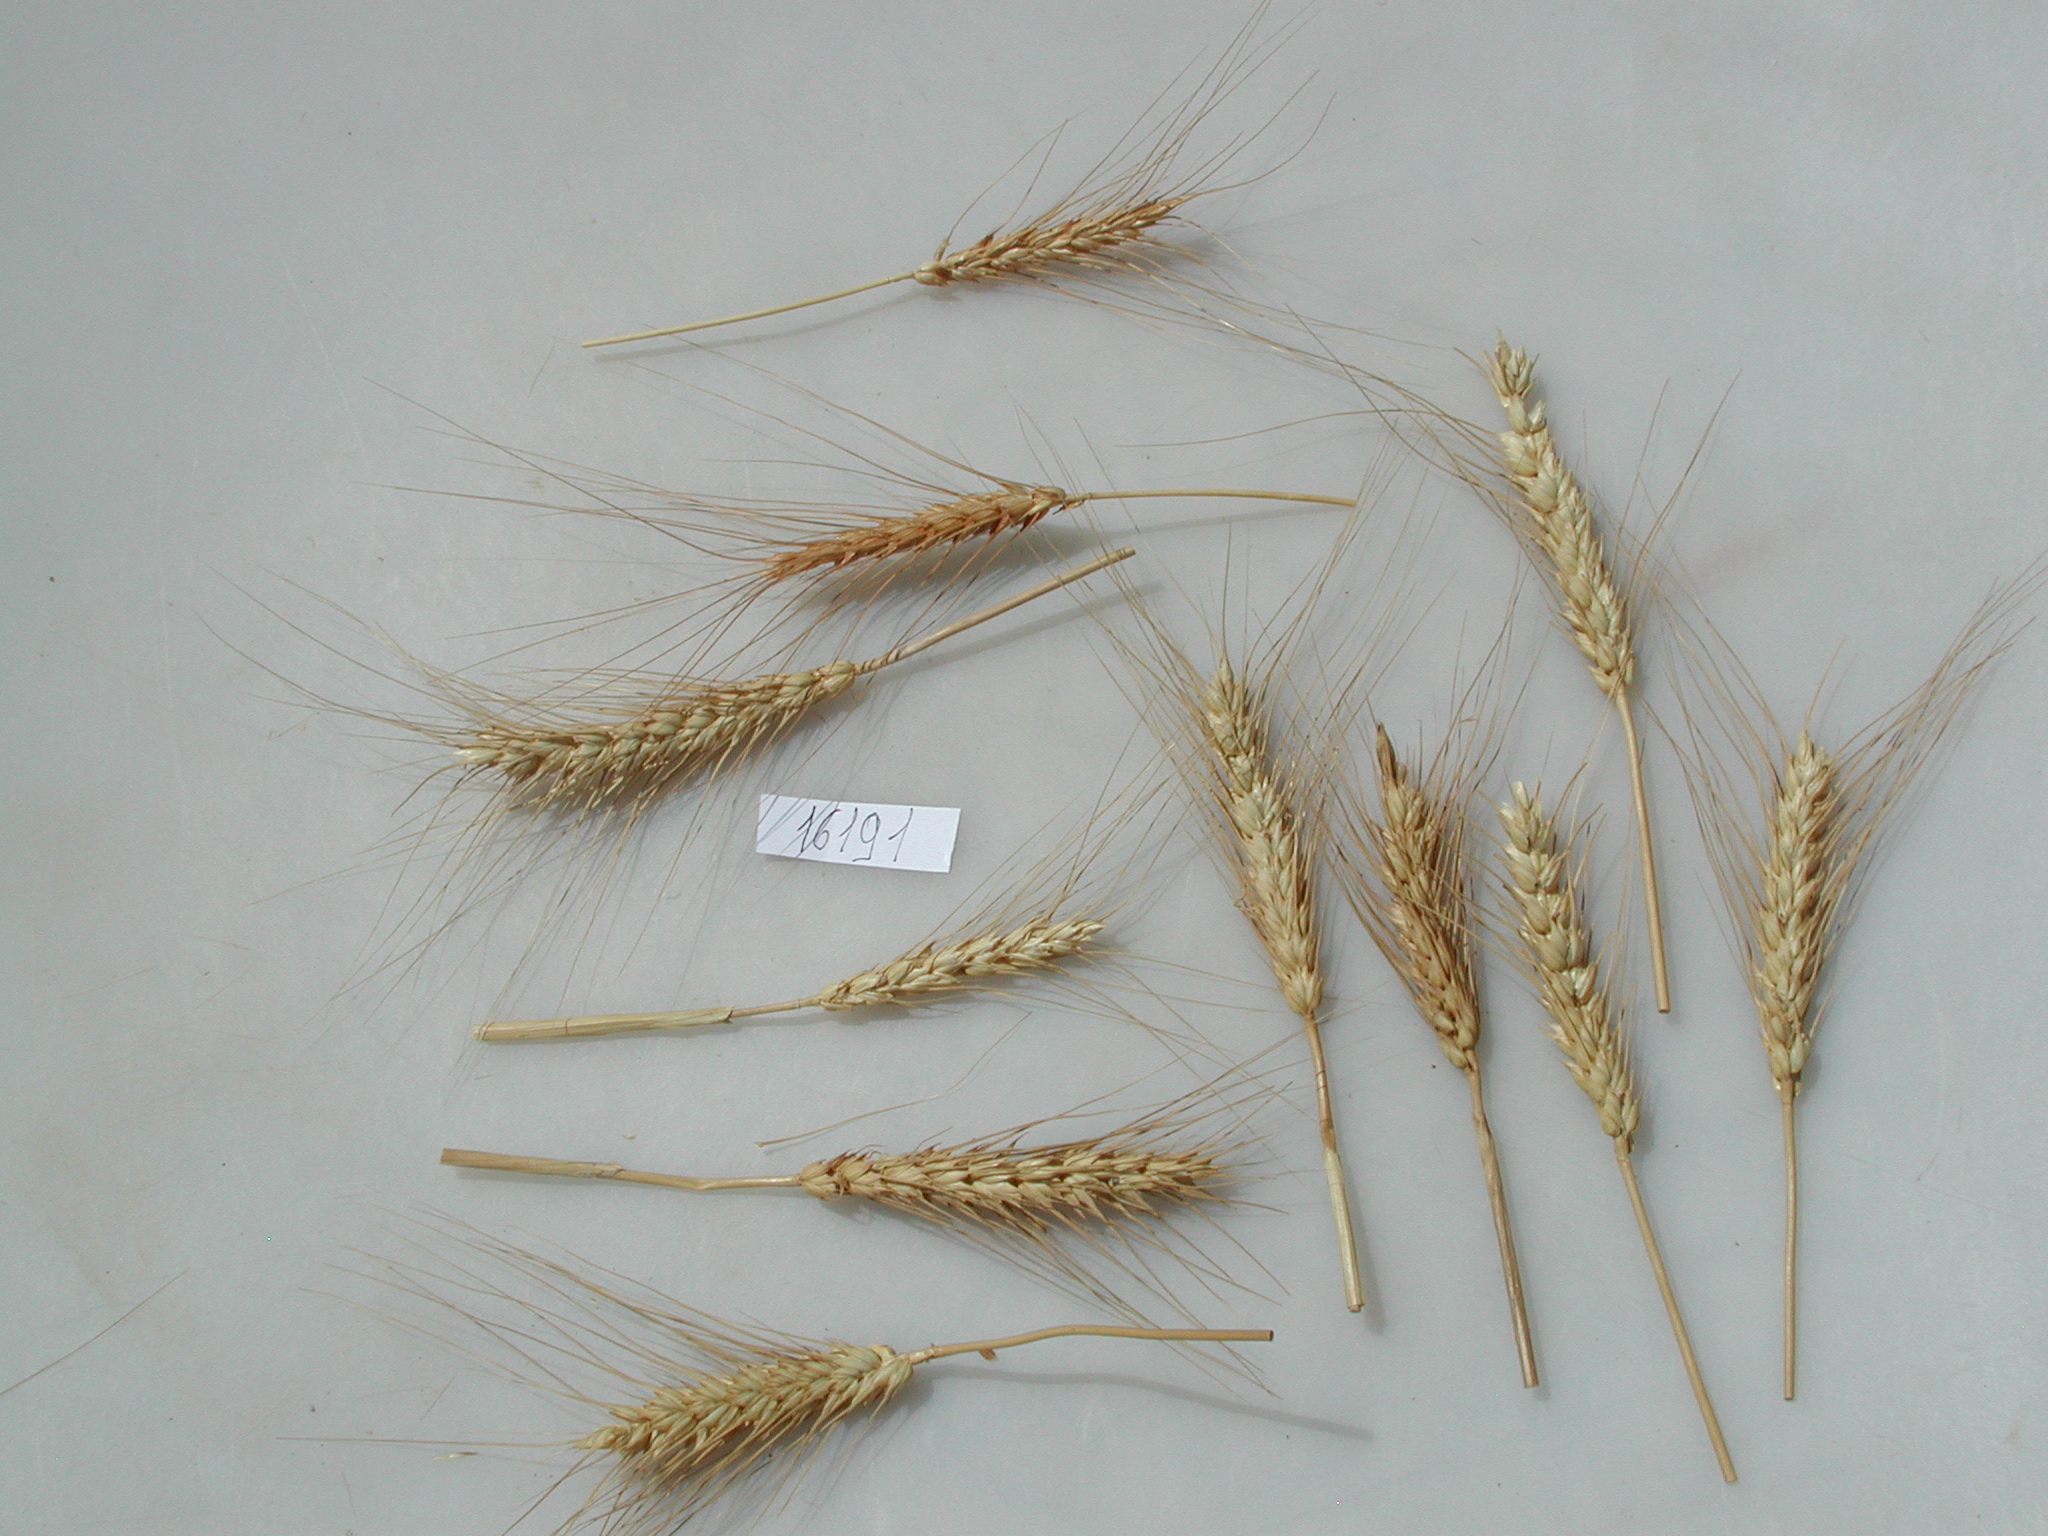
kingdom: Plantae
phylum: Tracheophyta
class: Liliopsida
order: Poales
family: Poaceae
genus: Triticum
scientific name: Triticum
